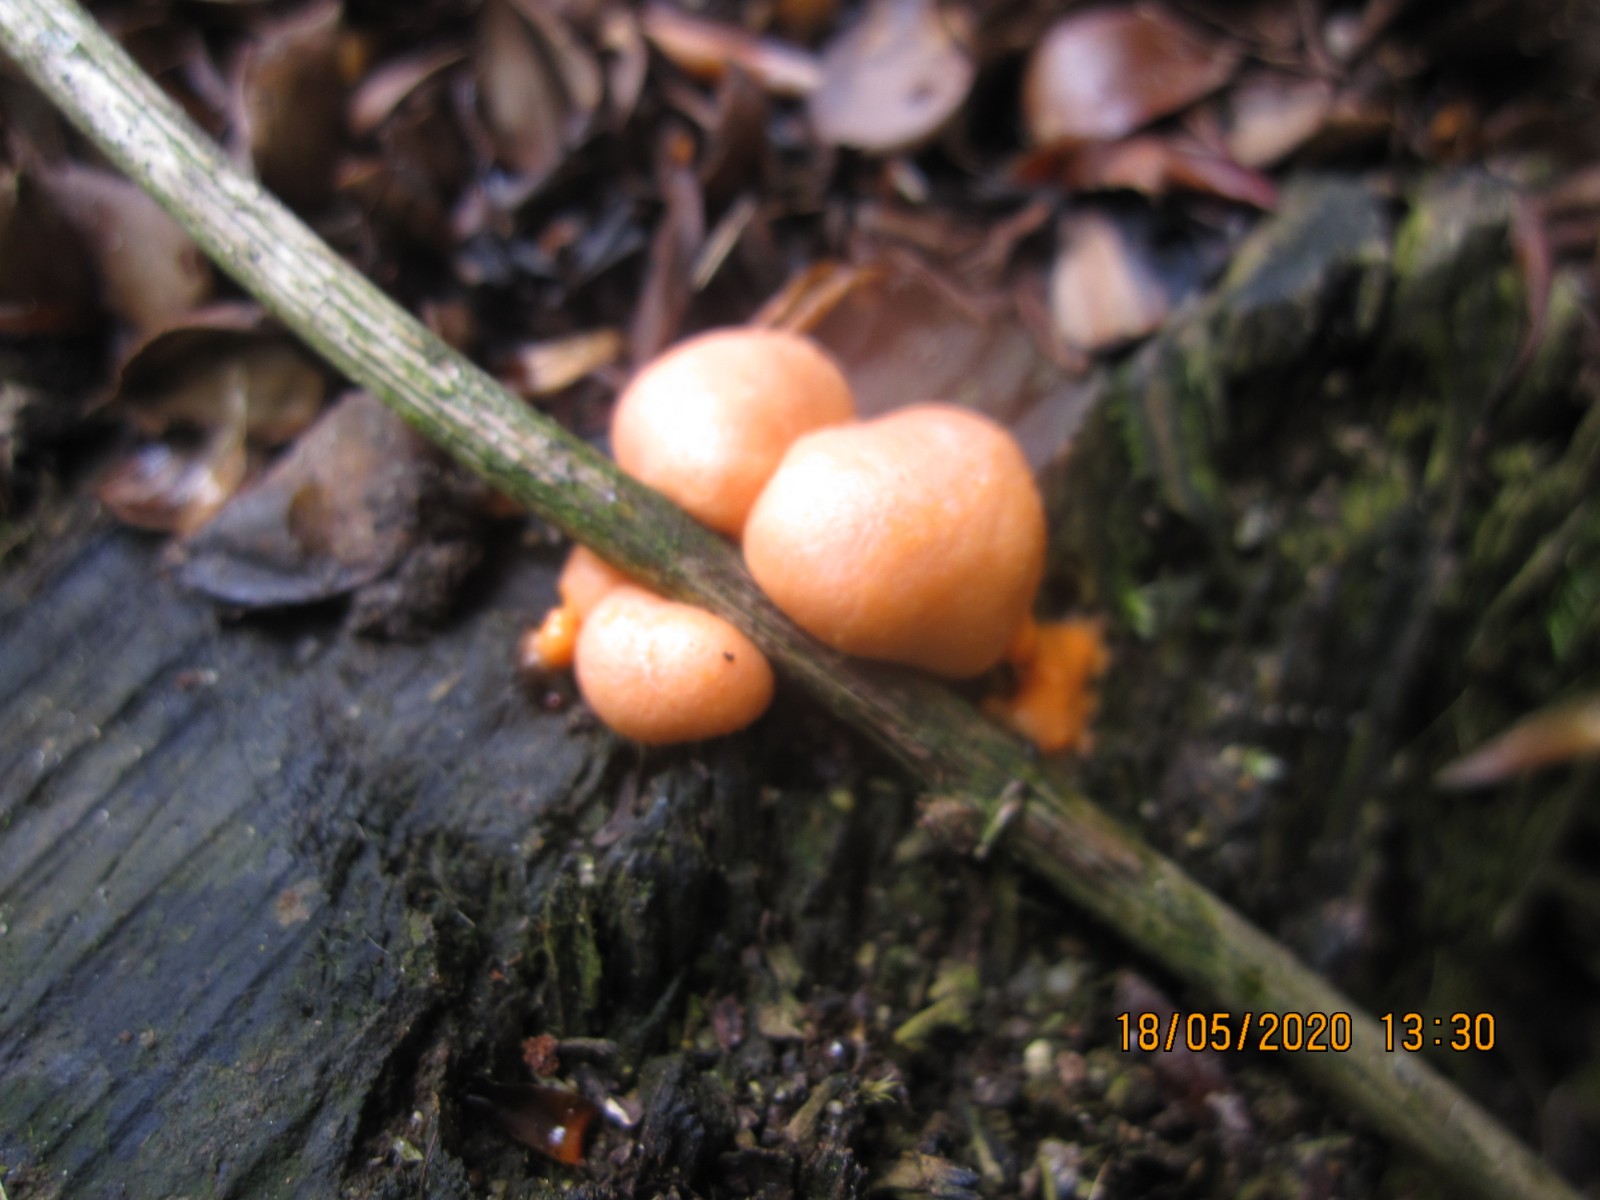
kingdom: Protozoa
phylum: Mycetozoa
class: Myxomycetes
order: Cribrariales
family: Tubiferaceae
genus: Lycogala
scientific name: Lycogala epidendrum
